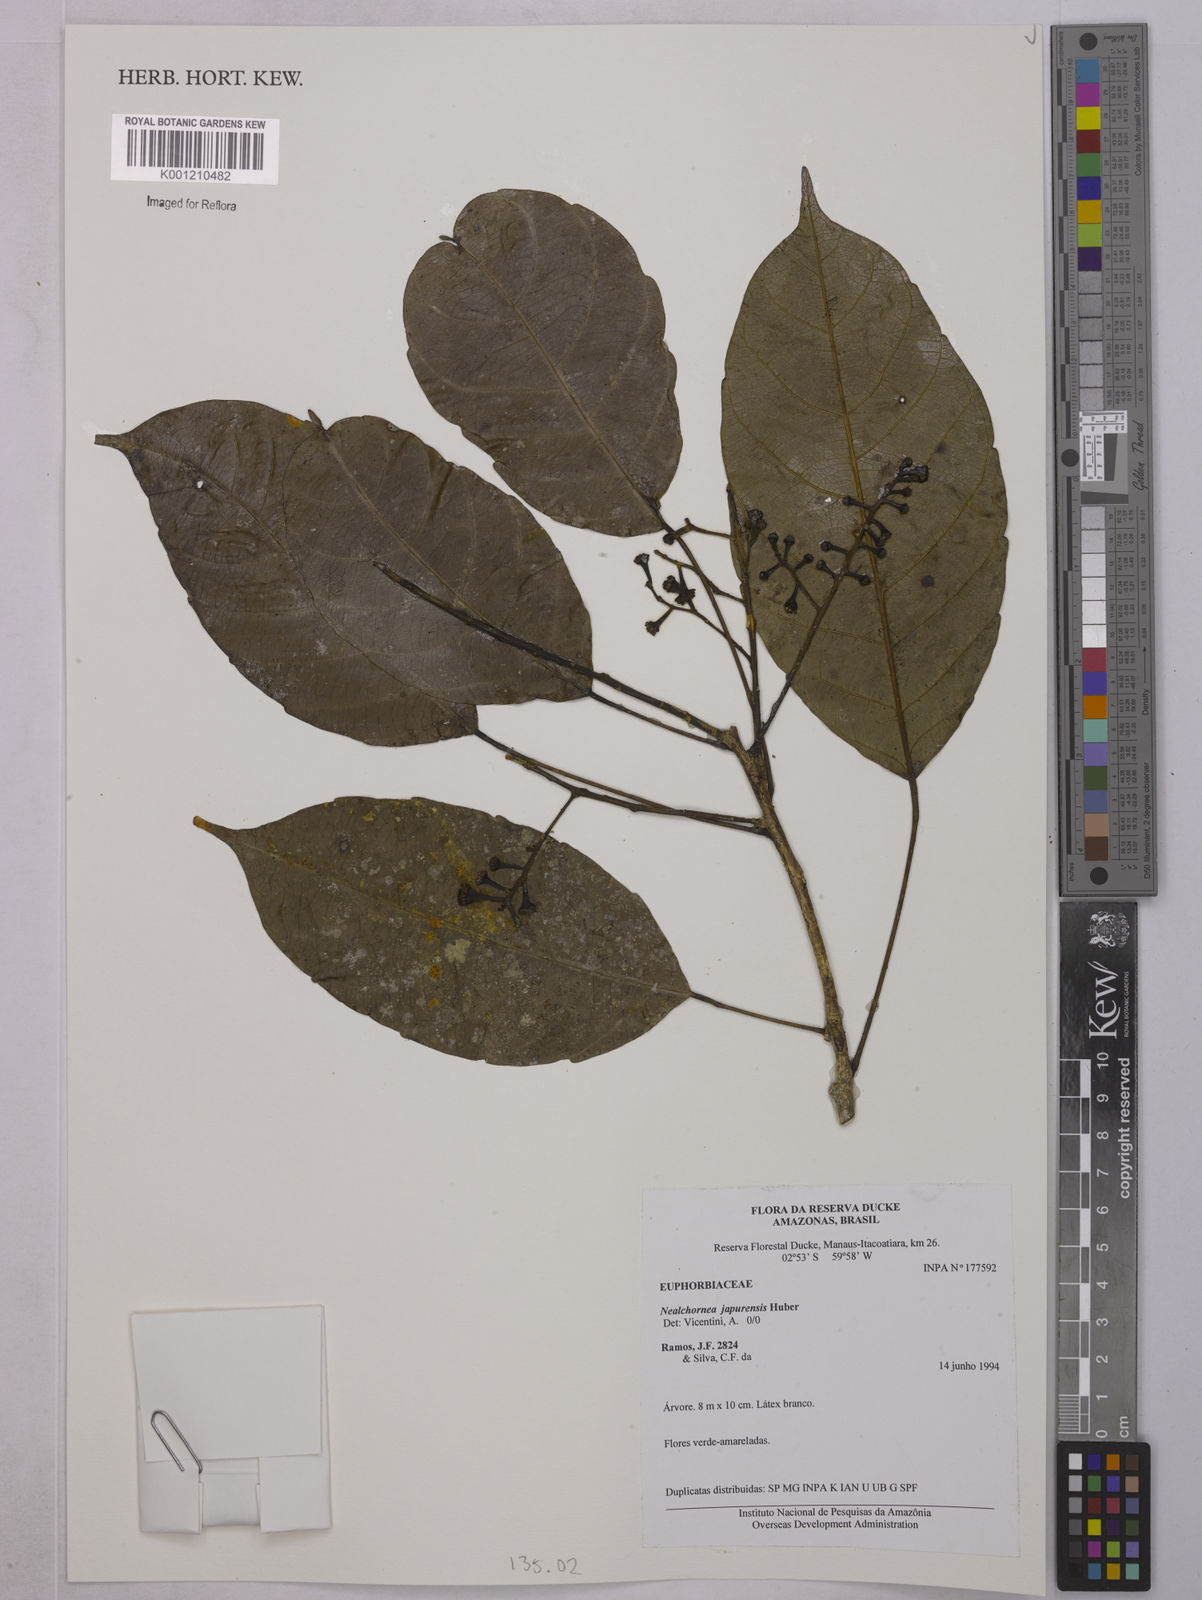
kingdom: Plantae
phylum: Tracheophyta
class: Magnoliopsida
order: Malpighiales
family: Euphorbiaceae
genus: Nealchornea
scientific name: Nealchornea yapurensis
